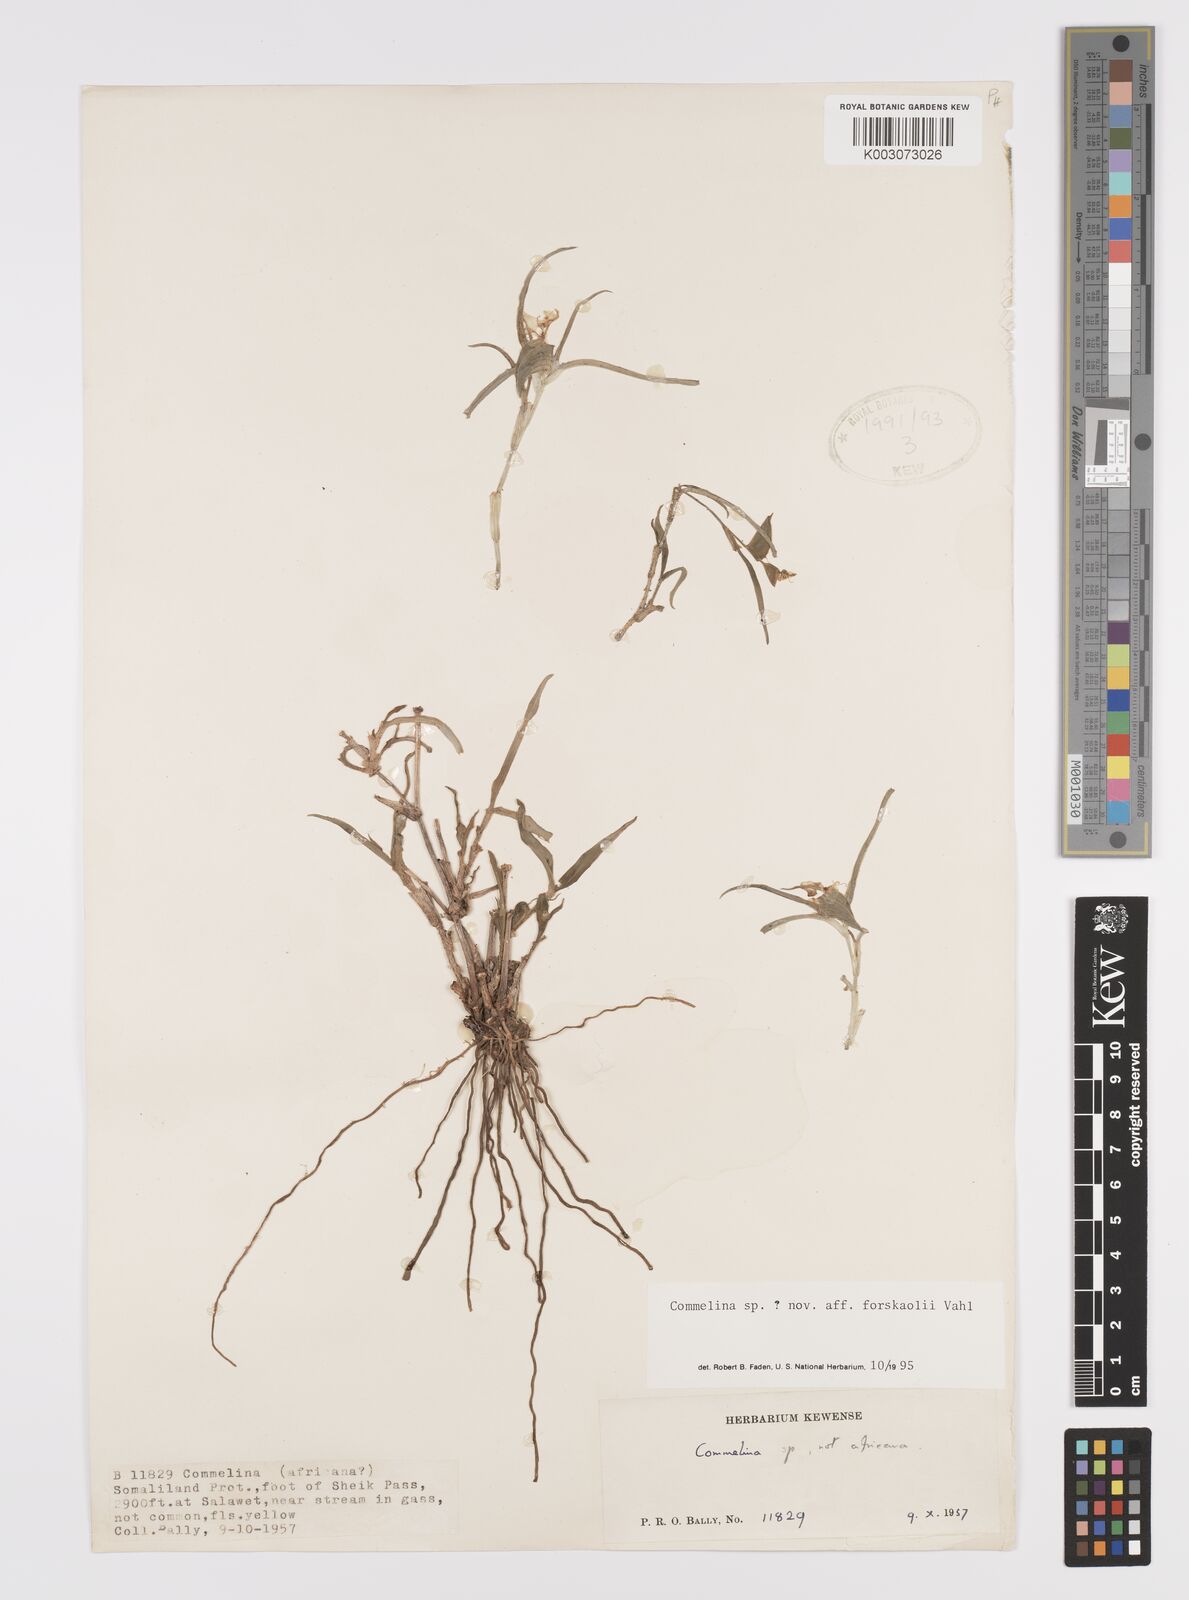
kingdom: Plantae
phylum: Tracheophyta
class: Liliopsida
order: Commelinales
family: Commelinaceae
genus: Commelina
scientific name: Commelina forskaolii
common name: Rat's ear
